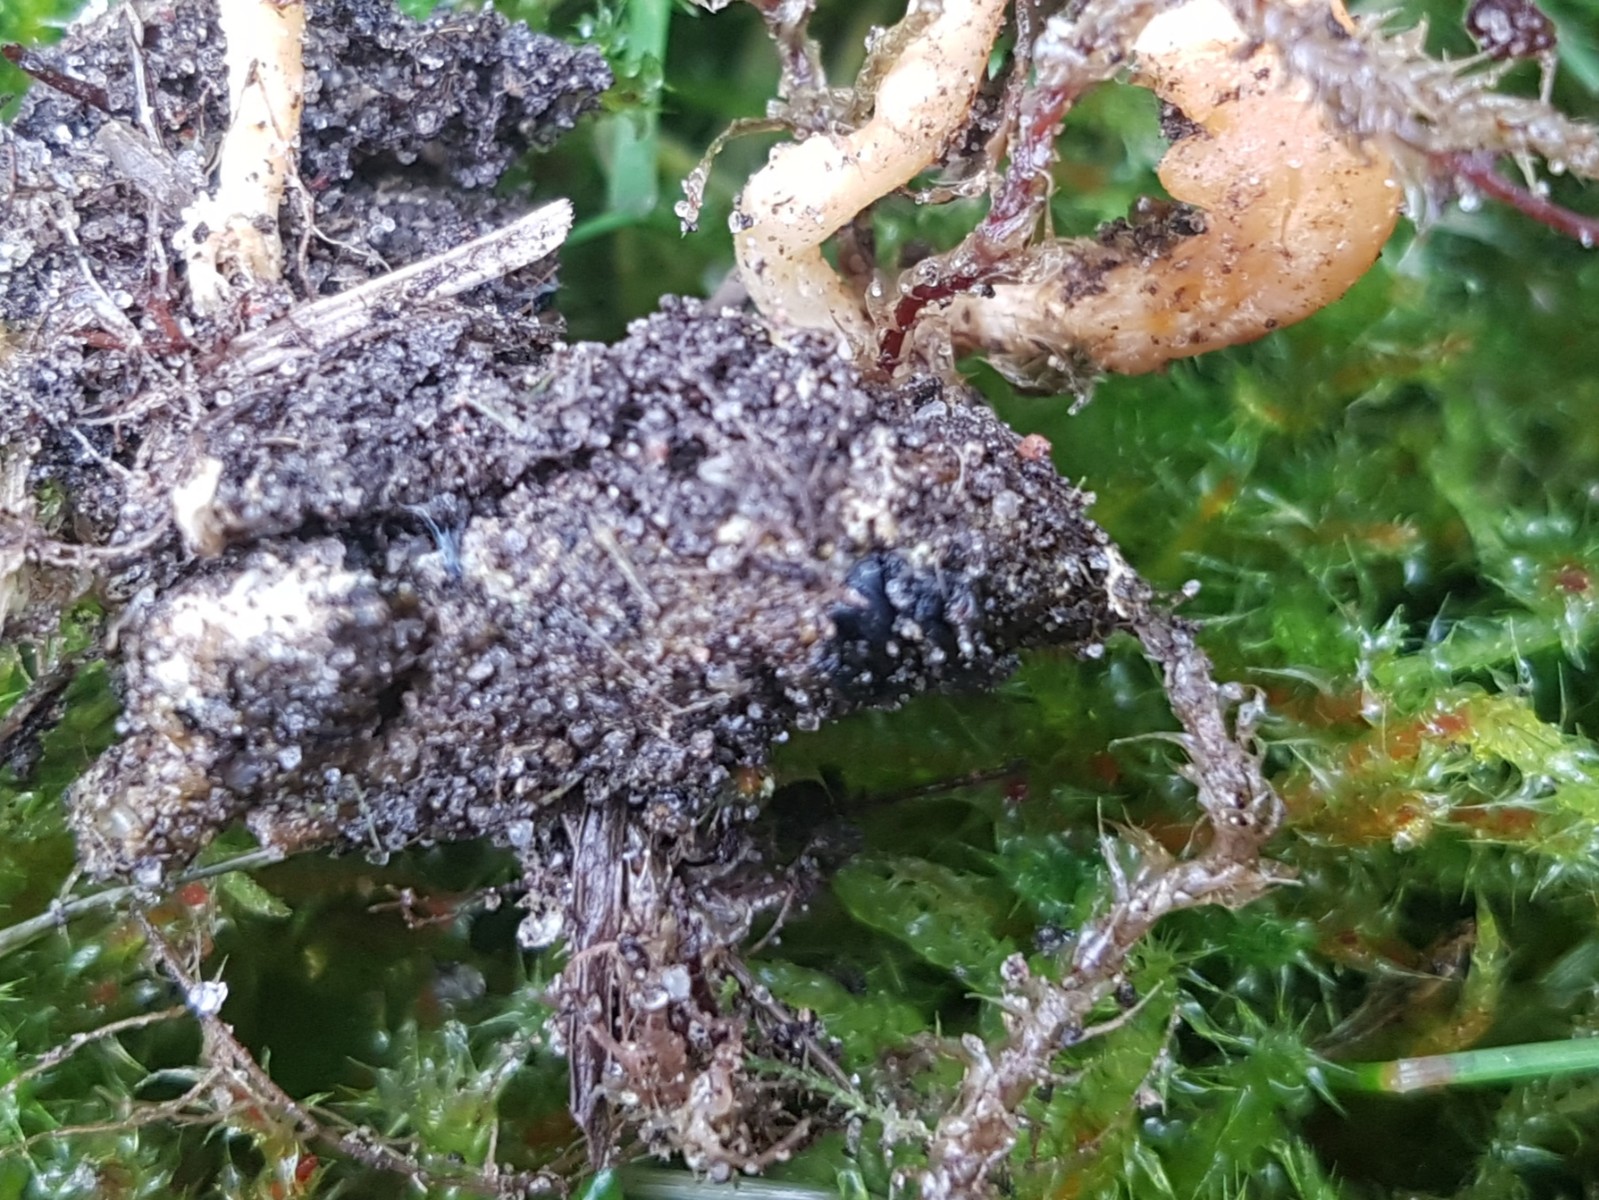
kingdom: Fungi
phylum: Ascomycota
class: Sordariomycetes
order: Hypocreales
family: Cordycipitaceae
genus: Cordyceps
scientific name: Cordyceps militaris
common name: puppe-snyltekølle
